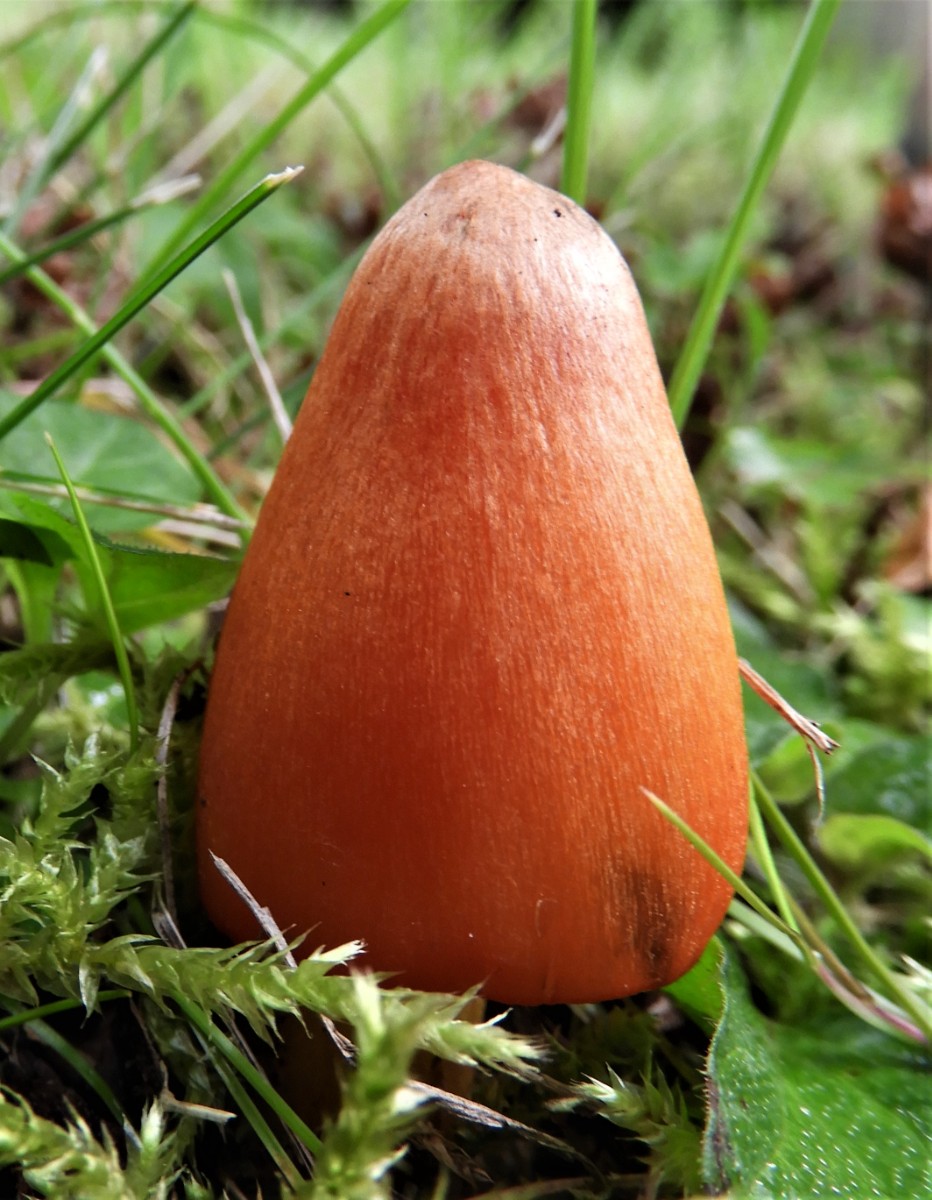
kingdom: Fungi
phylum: Basidiomycota
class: Agaricomycetes
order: Agaricales
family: Hygrophoraceae
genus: Hygrocybe
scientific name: Hygrocybe conica
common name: kegle-vokshat
